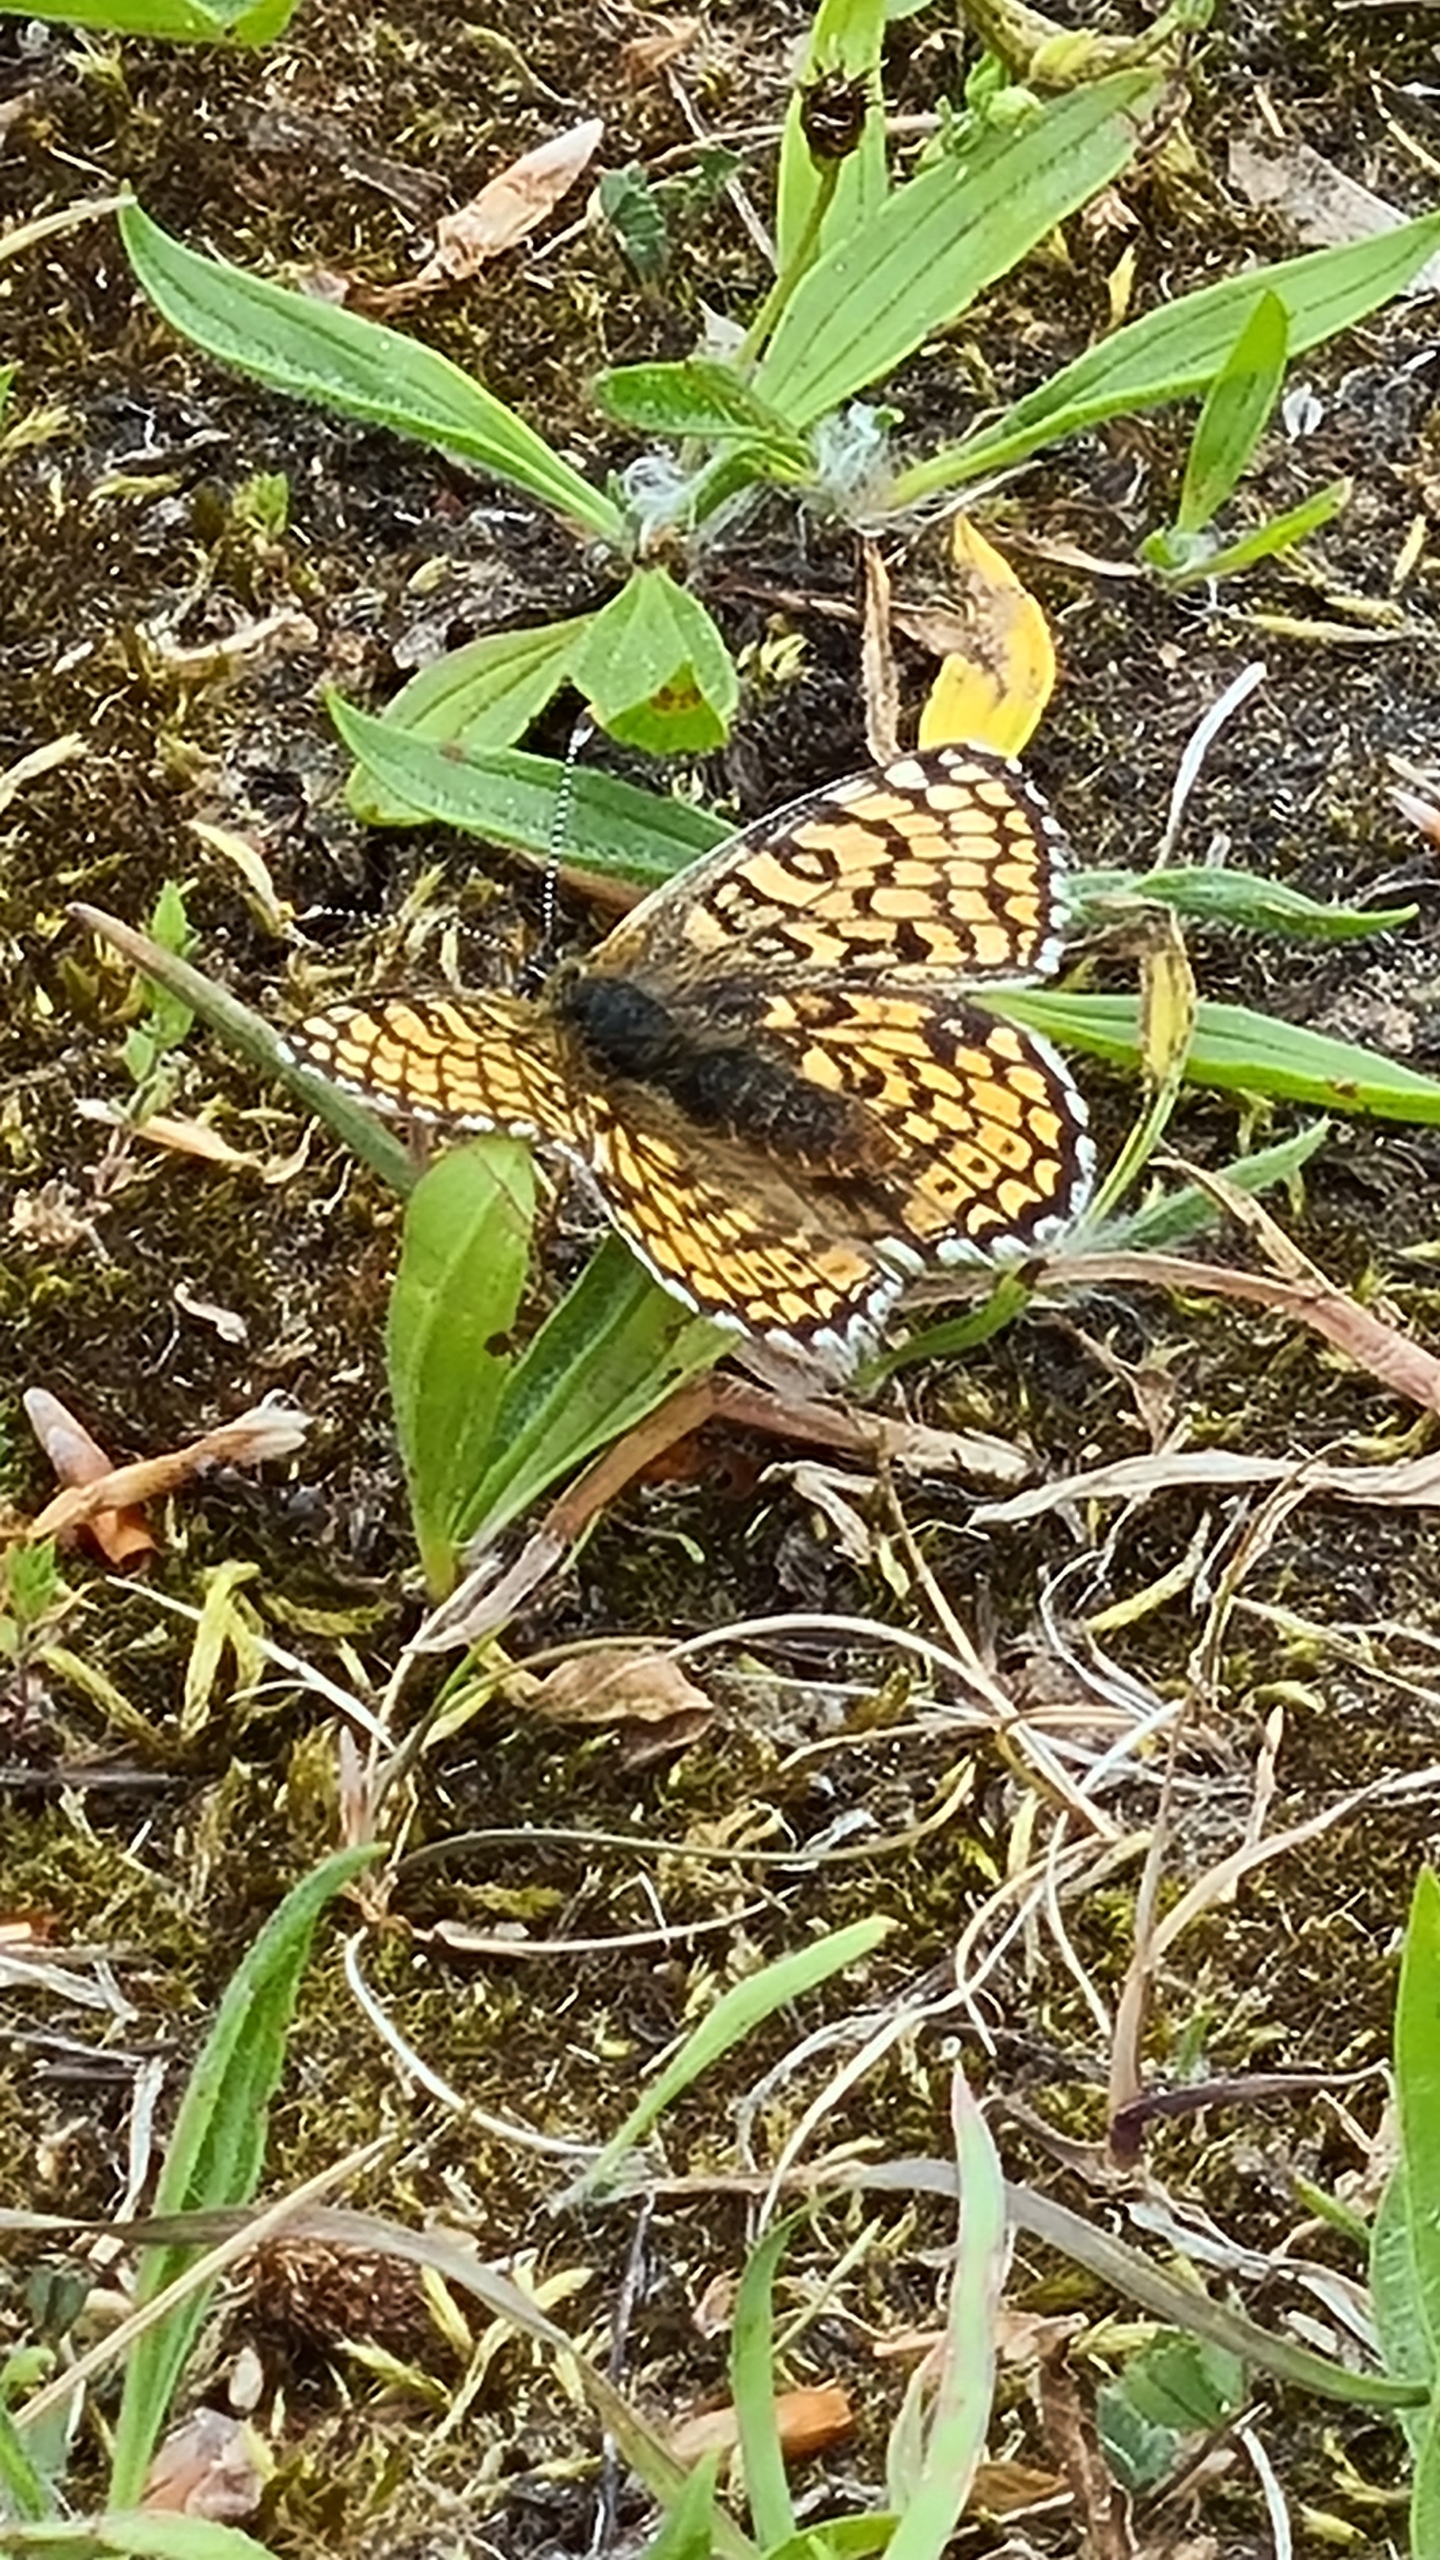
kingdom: Animalia
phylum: Arthropoda
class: Insecta
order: Lepidoptera
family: Nymphalidae
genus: Melitaea
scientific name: Melitaea cinxia
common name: Okkergul pletvinge
